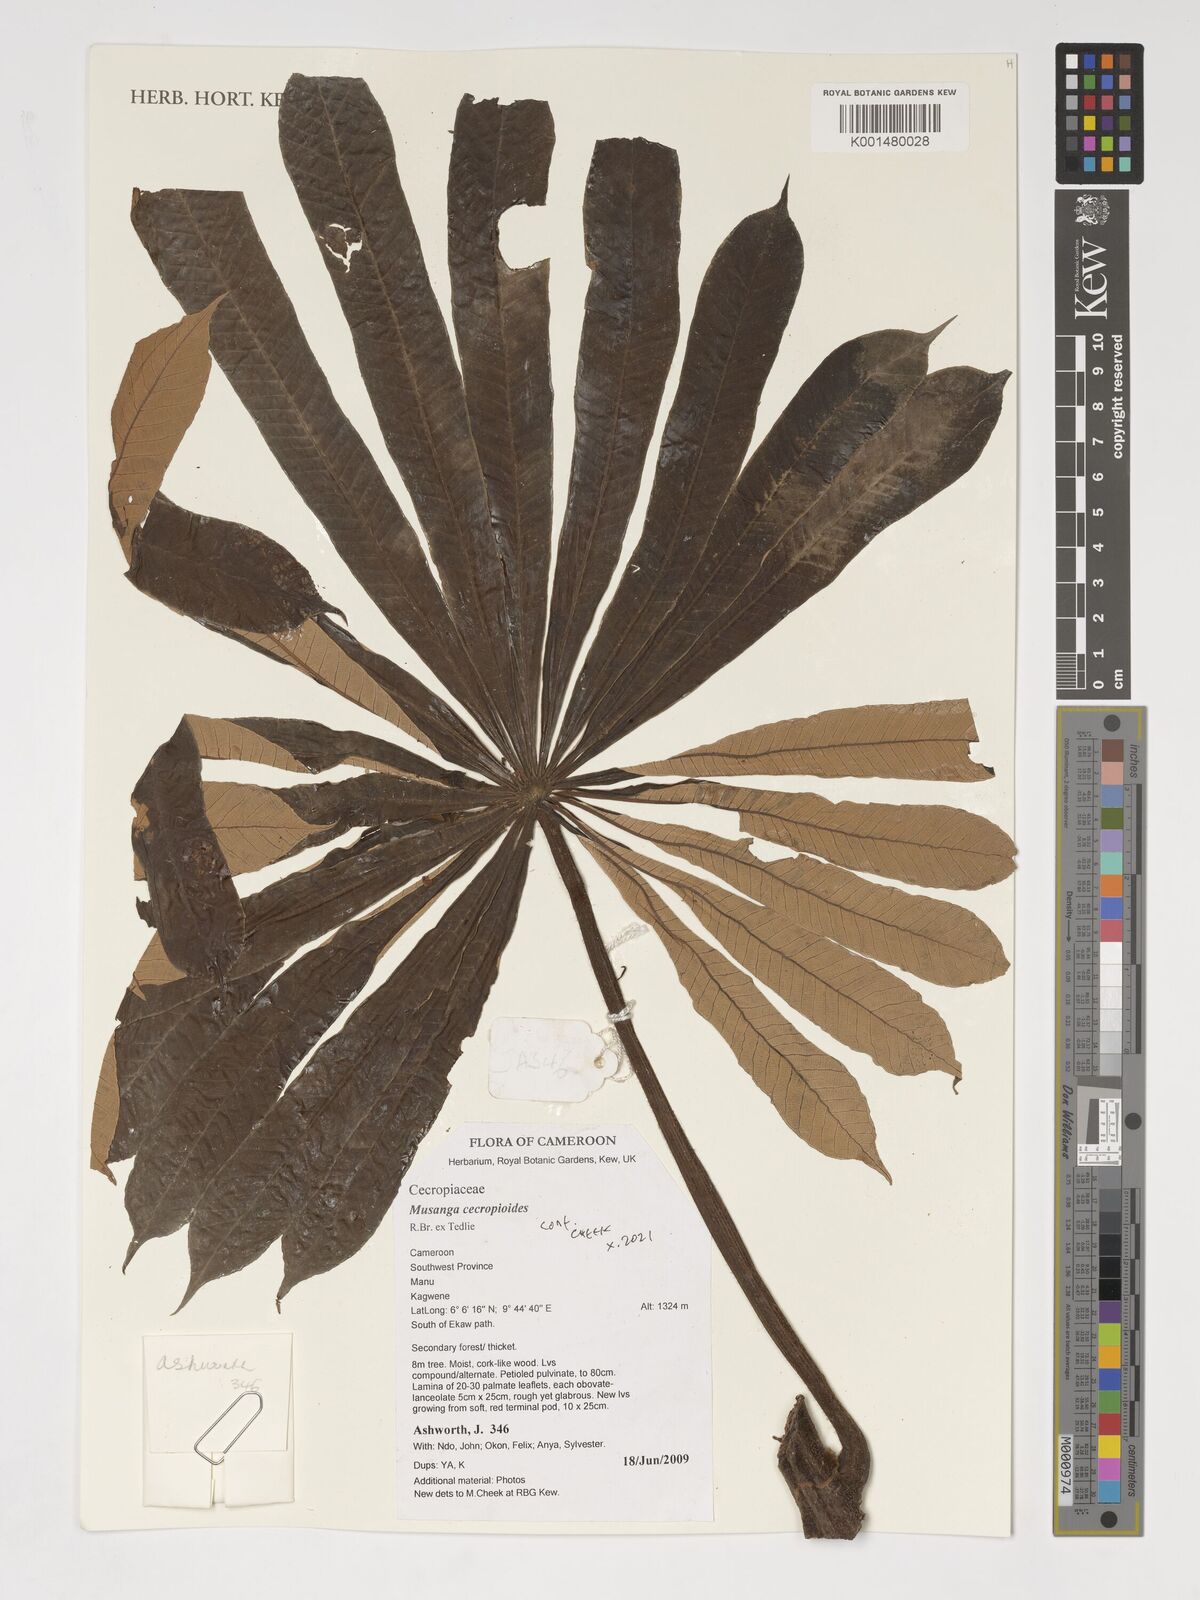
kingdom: Plantae
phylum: Tracheophyta
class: Magnoliopsida
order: Rosales
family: Urticaceae
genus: Musanga
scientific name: Musanga cecropioides
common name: African corkwood
